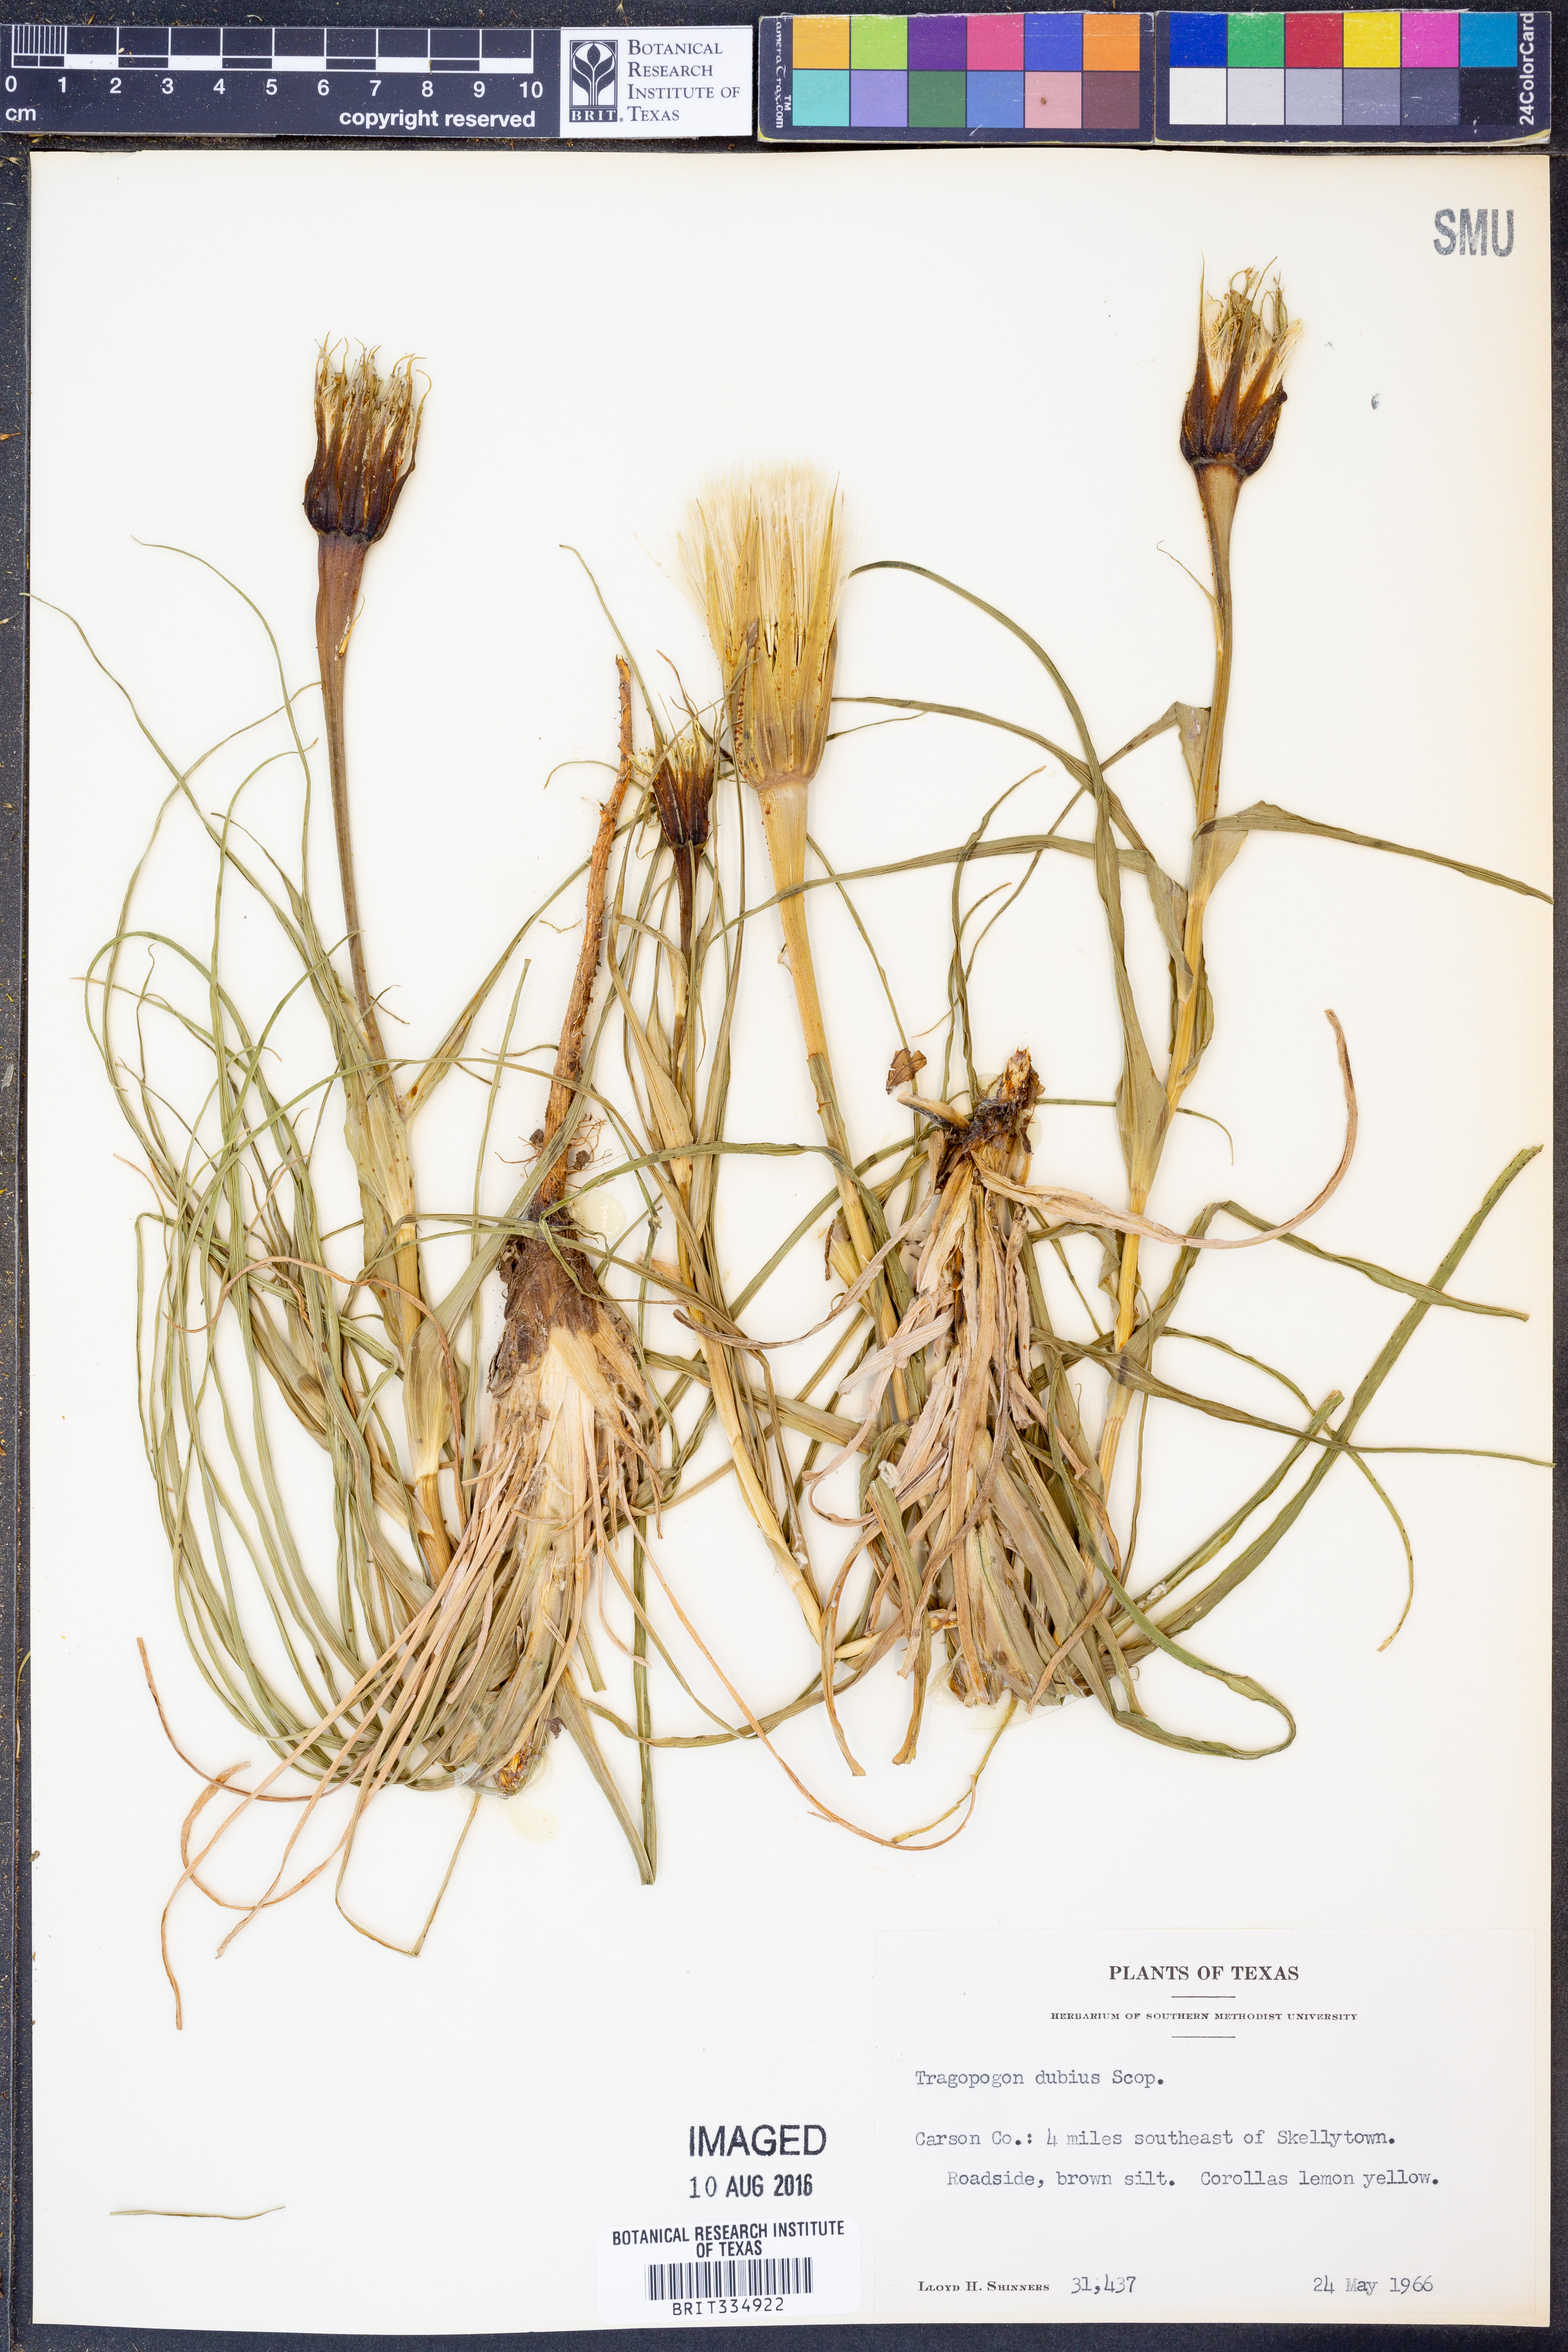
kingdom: Plantae
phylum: Tracheophyta
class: Magnoliopsida
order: Asterales
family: Asteraceae
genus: Tragopogon
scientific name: Tragopogon dubius
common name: Yellow salsify
